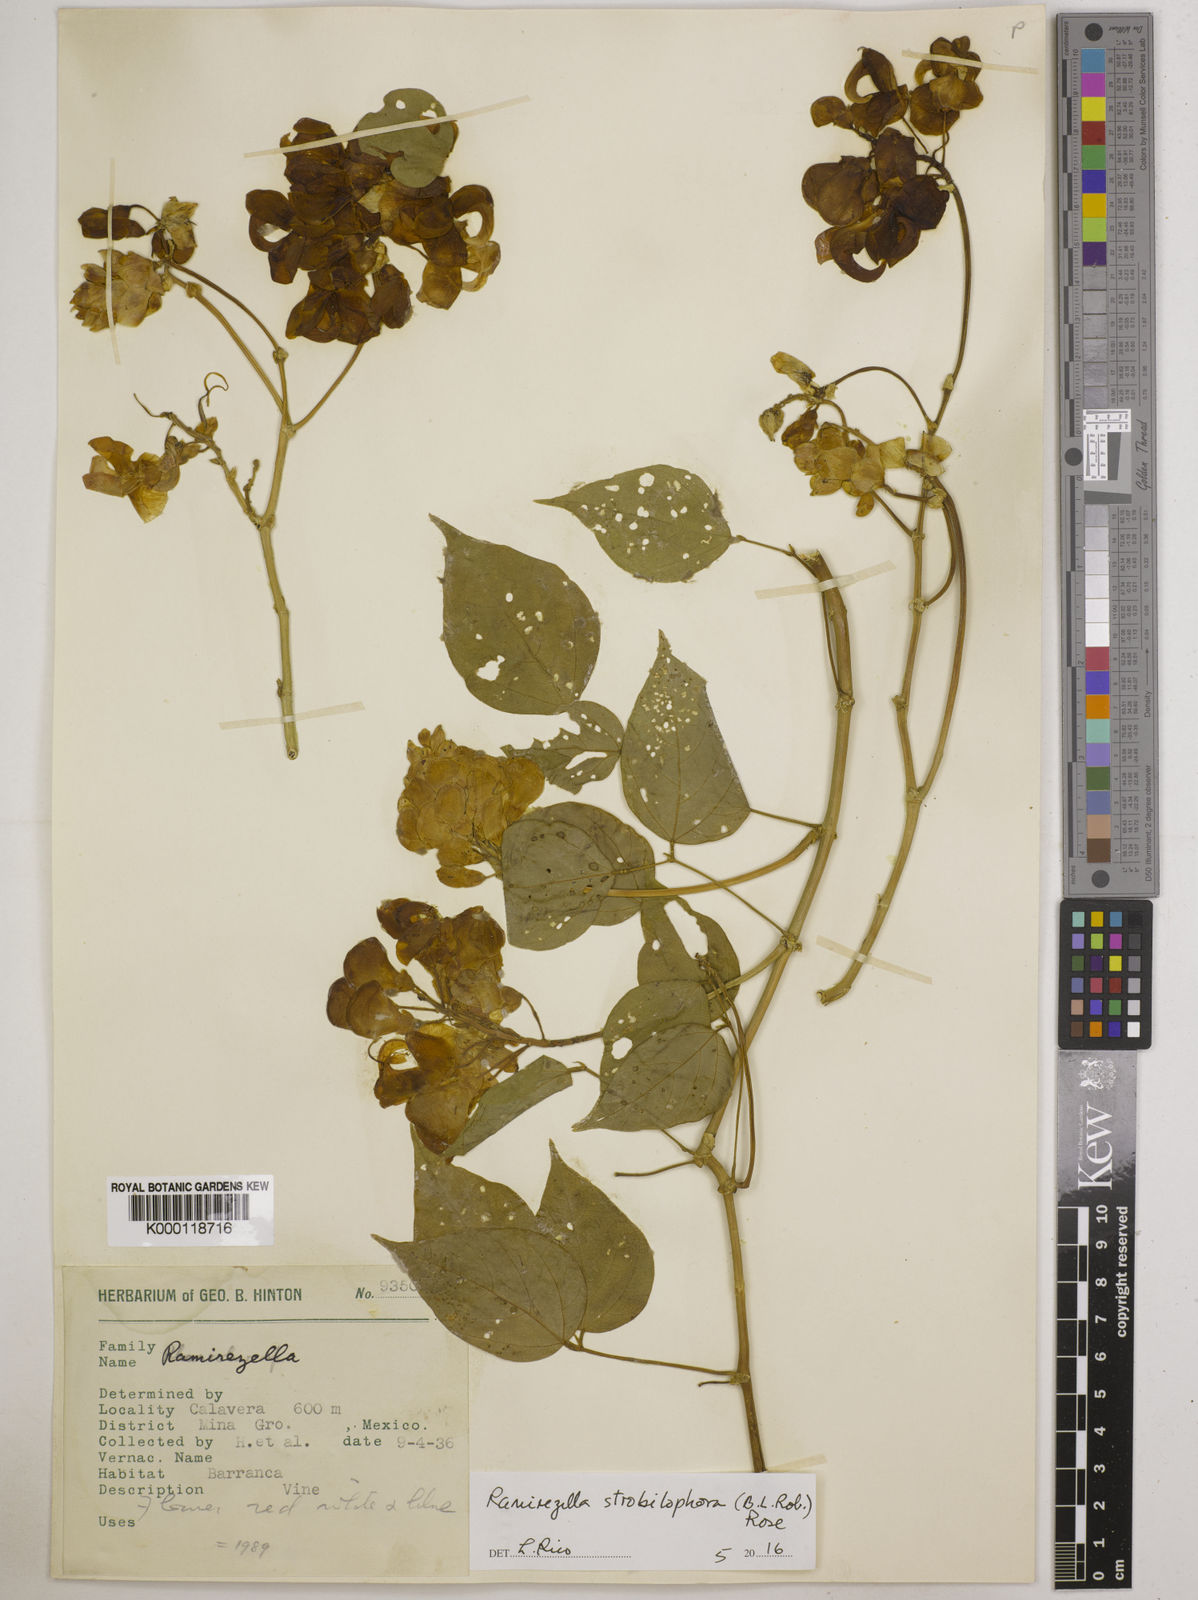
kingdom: Plantae
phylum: Tracheophyta
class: Magnoliopsida
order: Fabales
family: Fabaceae
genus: Ramirezella
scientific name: Ramirezella strobilophora
